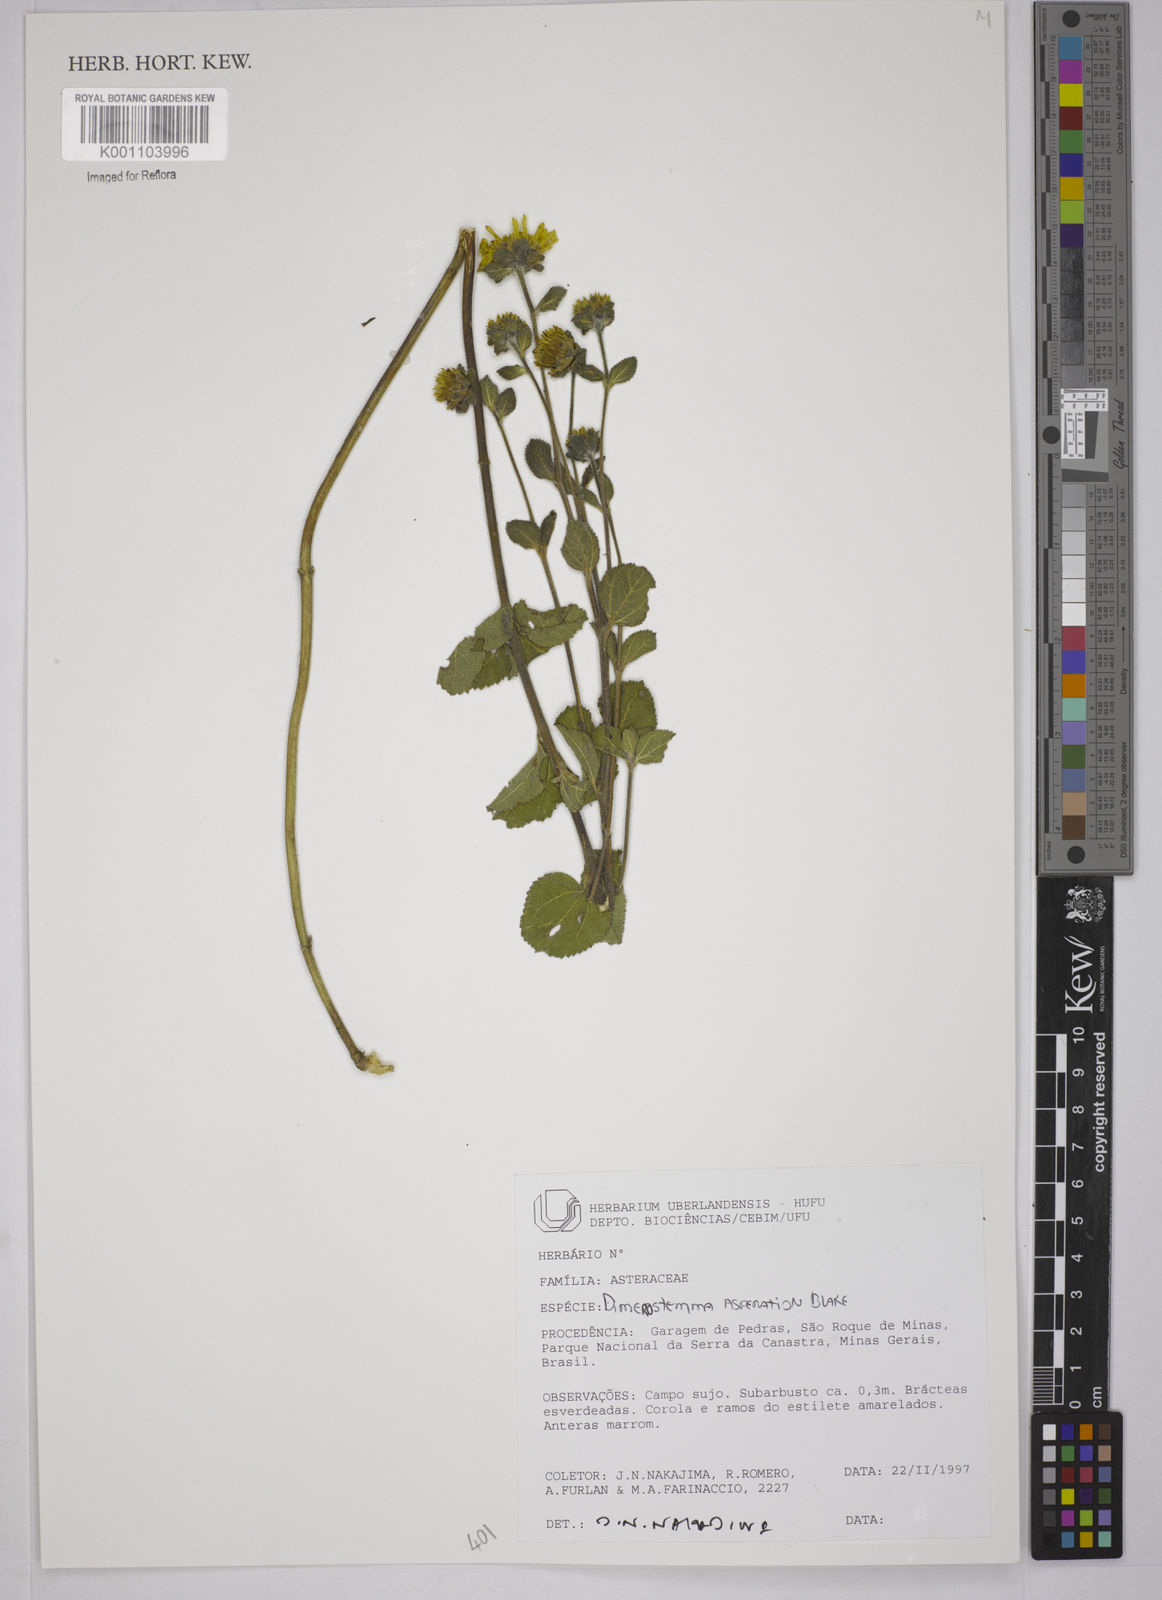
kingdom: Plantae
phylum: Tracheophyta
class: Magnoliopsida
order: Asterales
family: Asteraceae
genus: Dimerostemma
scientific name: Dimerostemma asperatum
